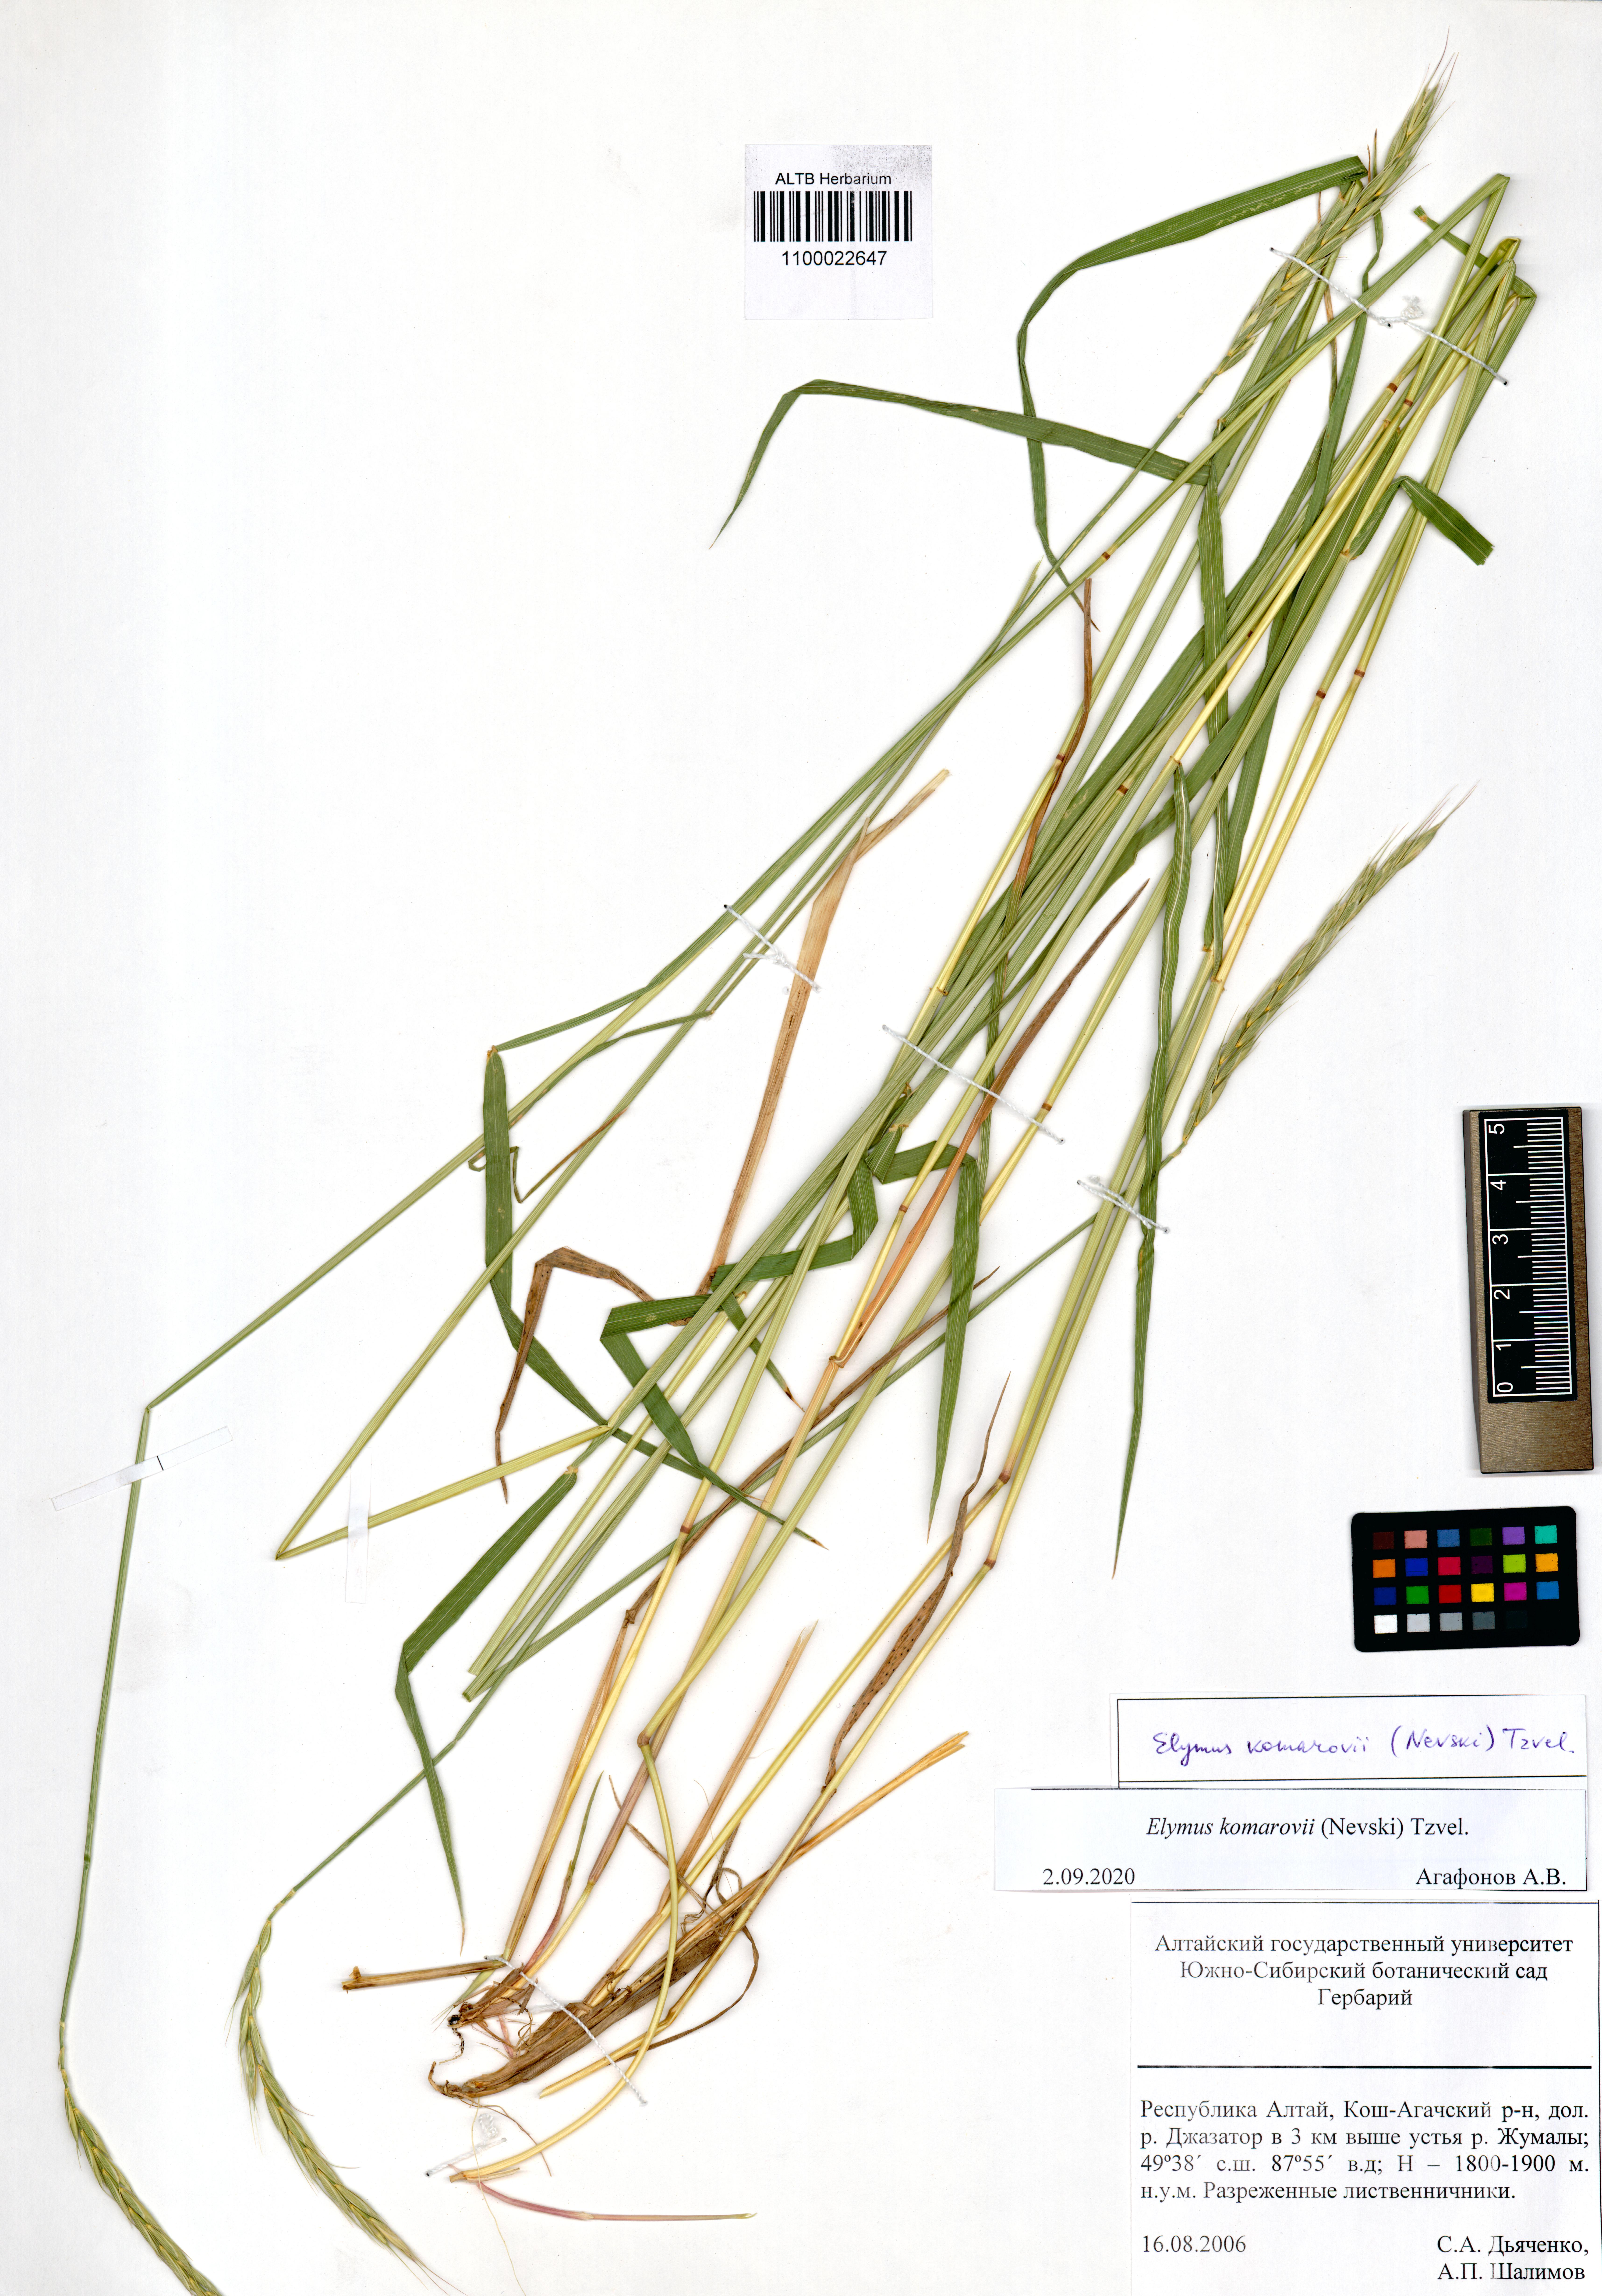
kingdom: Plantae
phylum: Tracheophyta
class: Liliopsida
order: Poales
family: Poaceae
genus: Elymus
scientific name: Elymus uralensis
